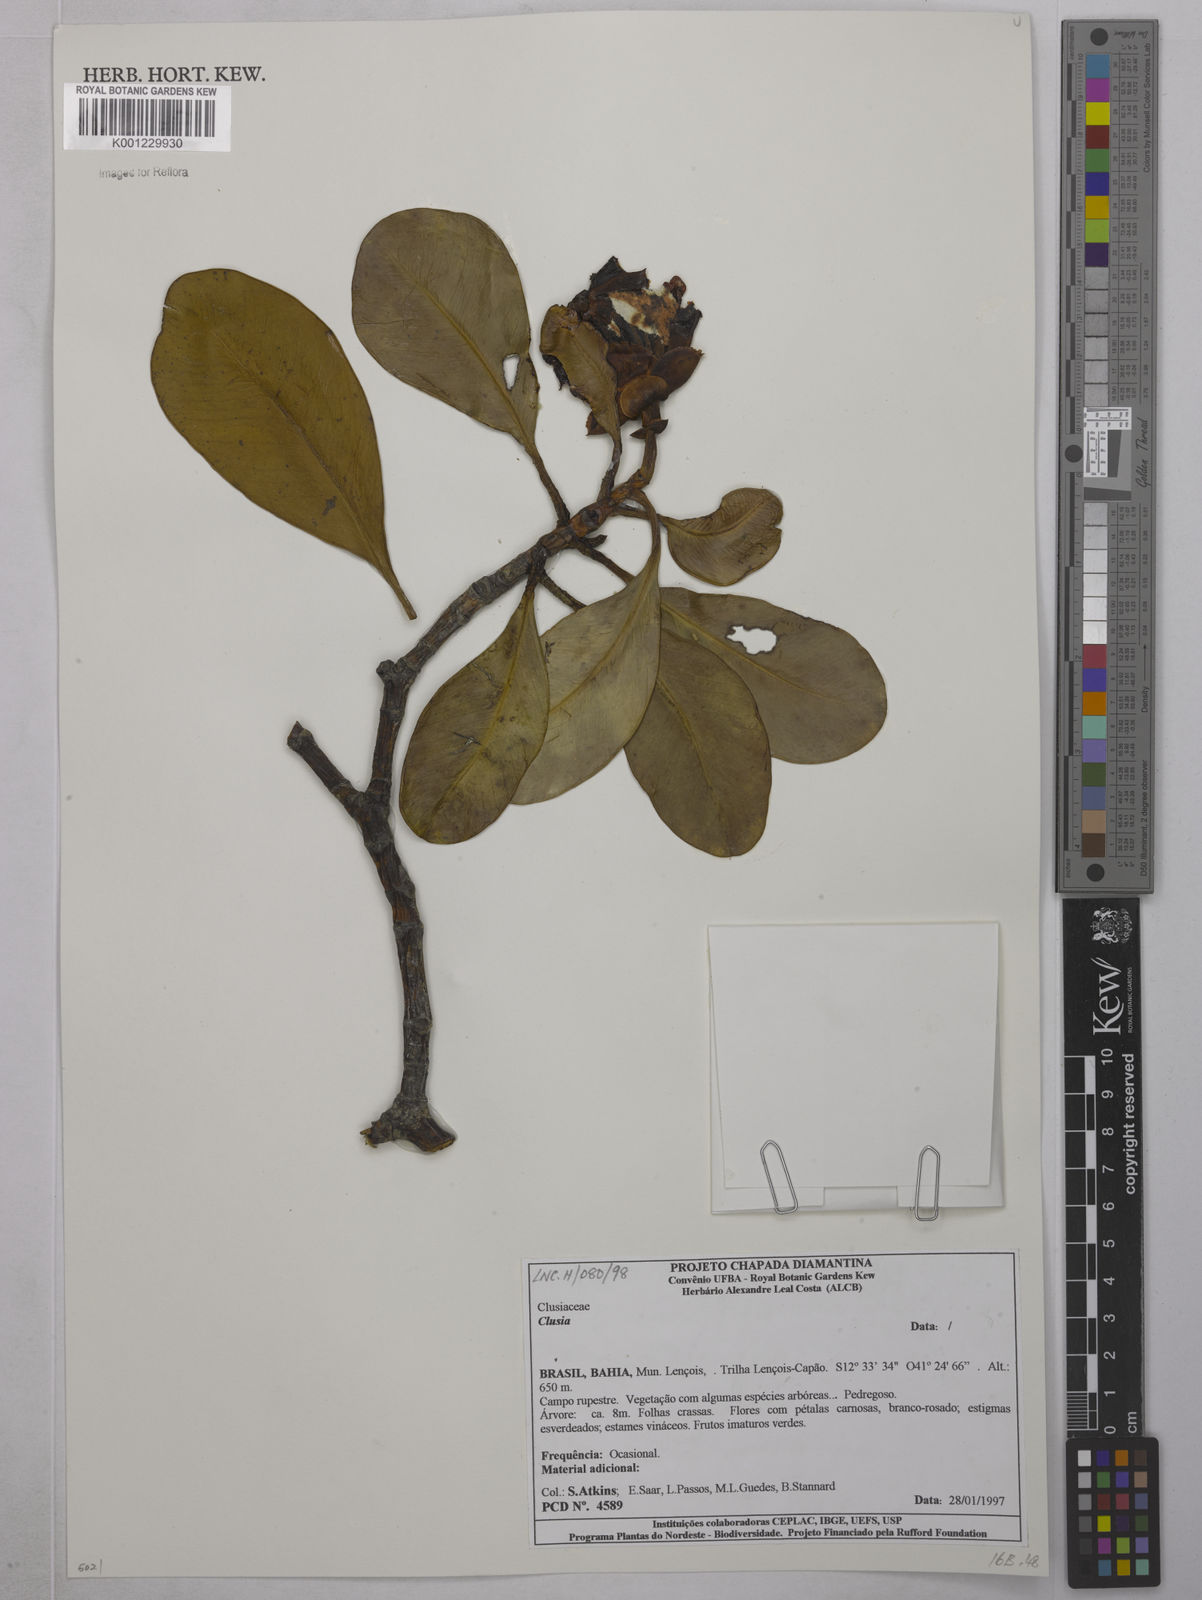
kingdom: Plantae
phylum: Tracheophyta
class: Magnoliopsida
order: Malpighiales
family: Clusiaceae
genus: Clusia
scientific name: Clusia
